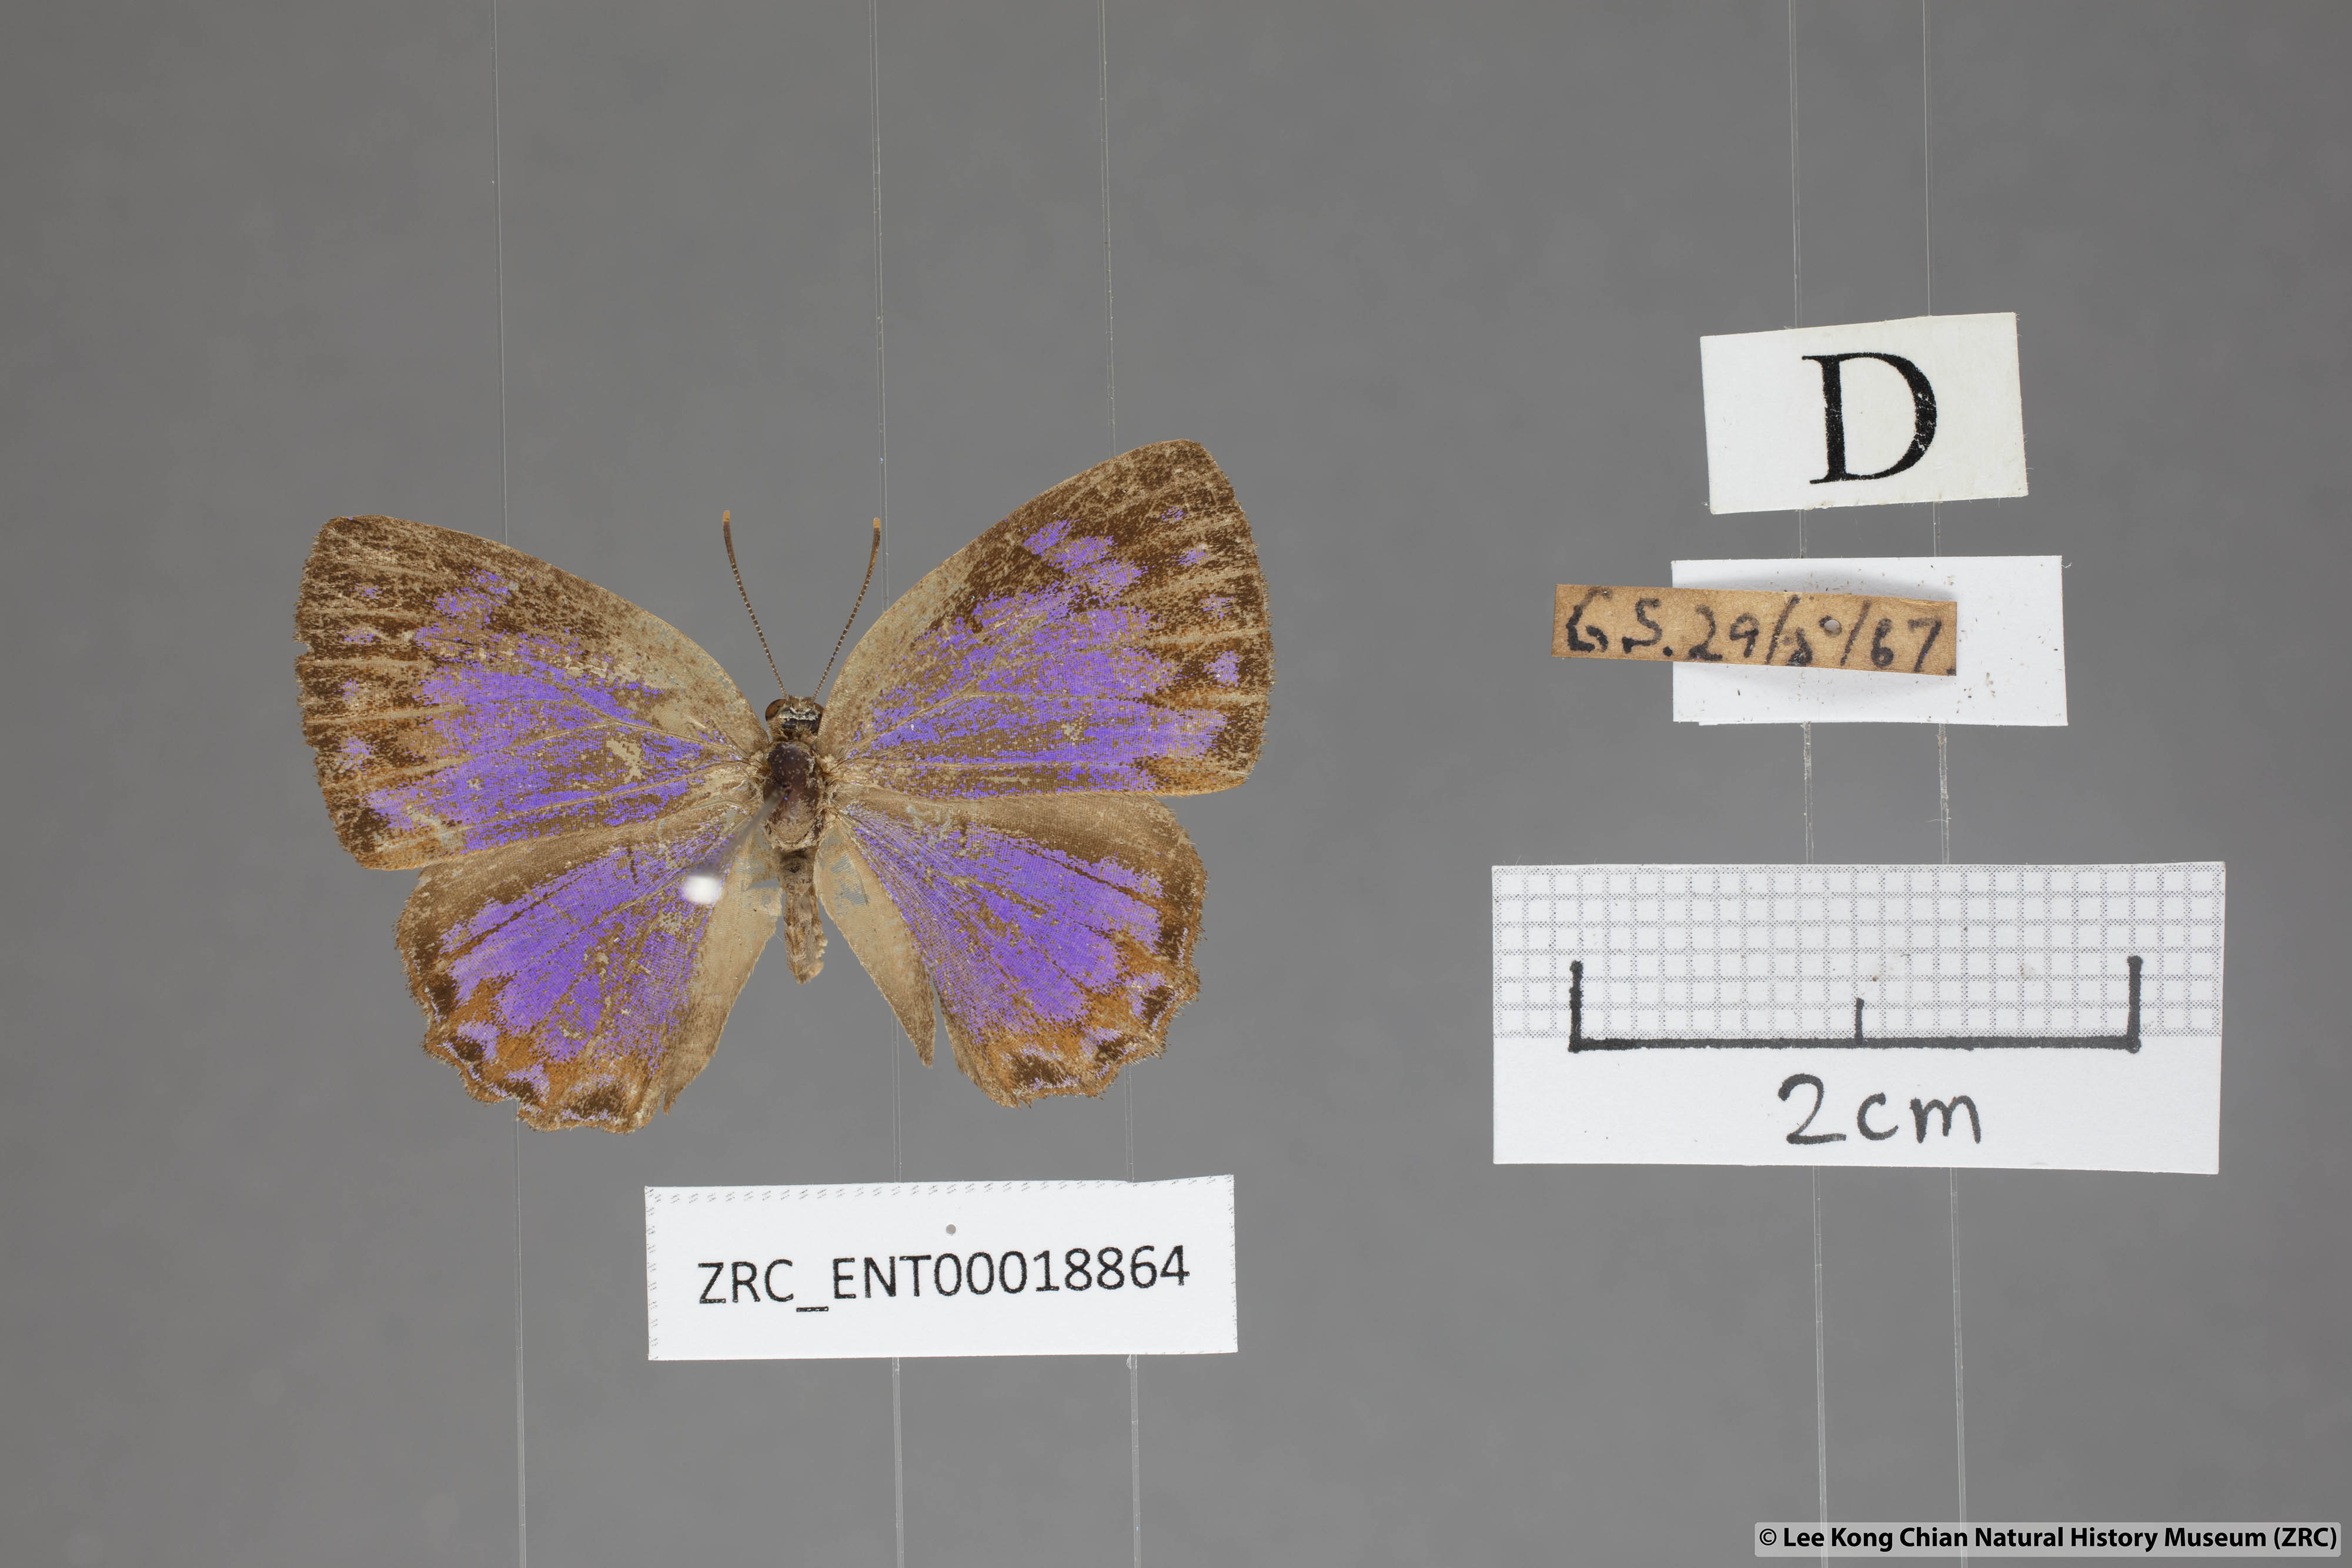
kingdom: Animalia
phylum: Arthropoda
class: Insecta
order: Lepidoptera
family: Lycaenidae
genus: Poritia
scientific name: Poritia sumatrae
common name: Sumatran gem
